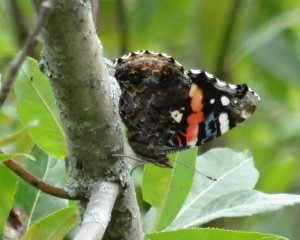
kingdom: Animalia
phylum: Arthropoda
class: Insecta
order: Lepidoptera
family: Nymphalidae
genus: Vanessa
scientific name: Vanessa atalanta
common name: Red Admiral
